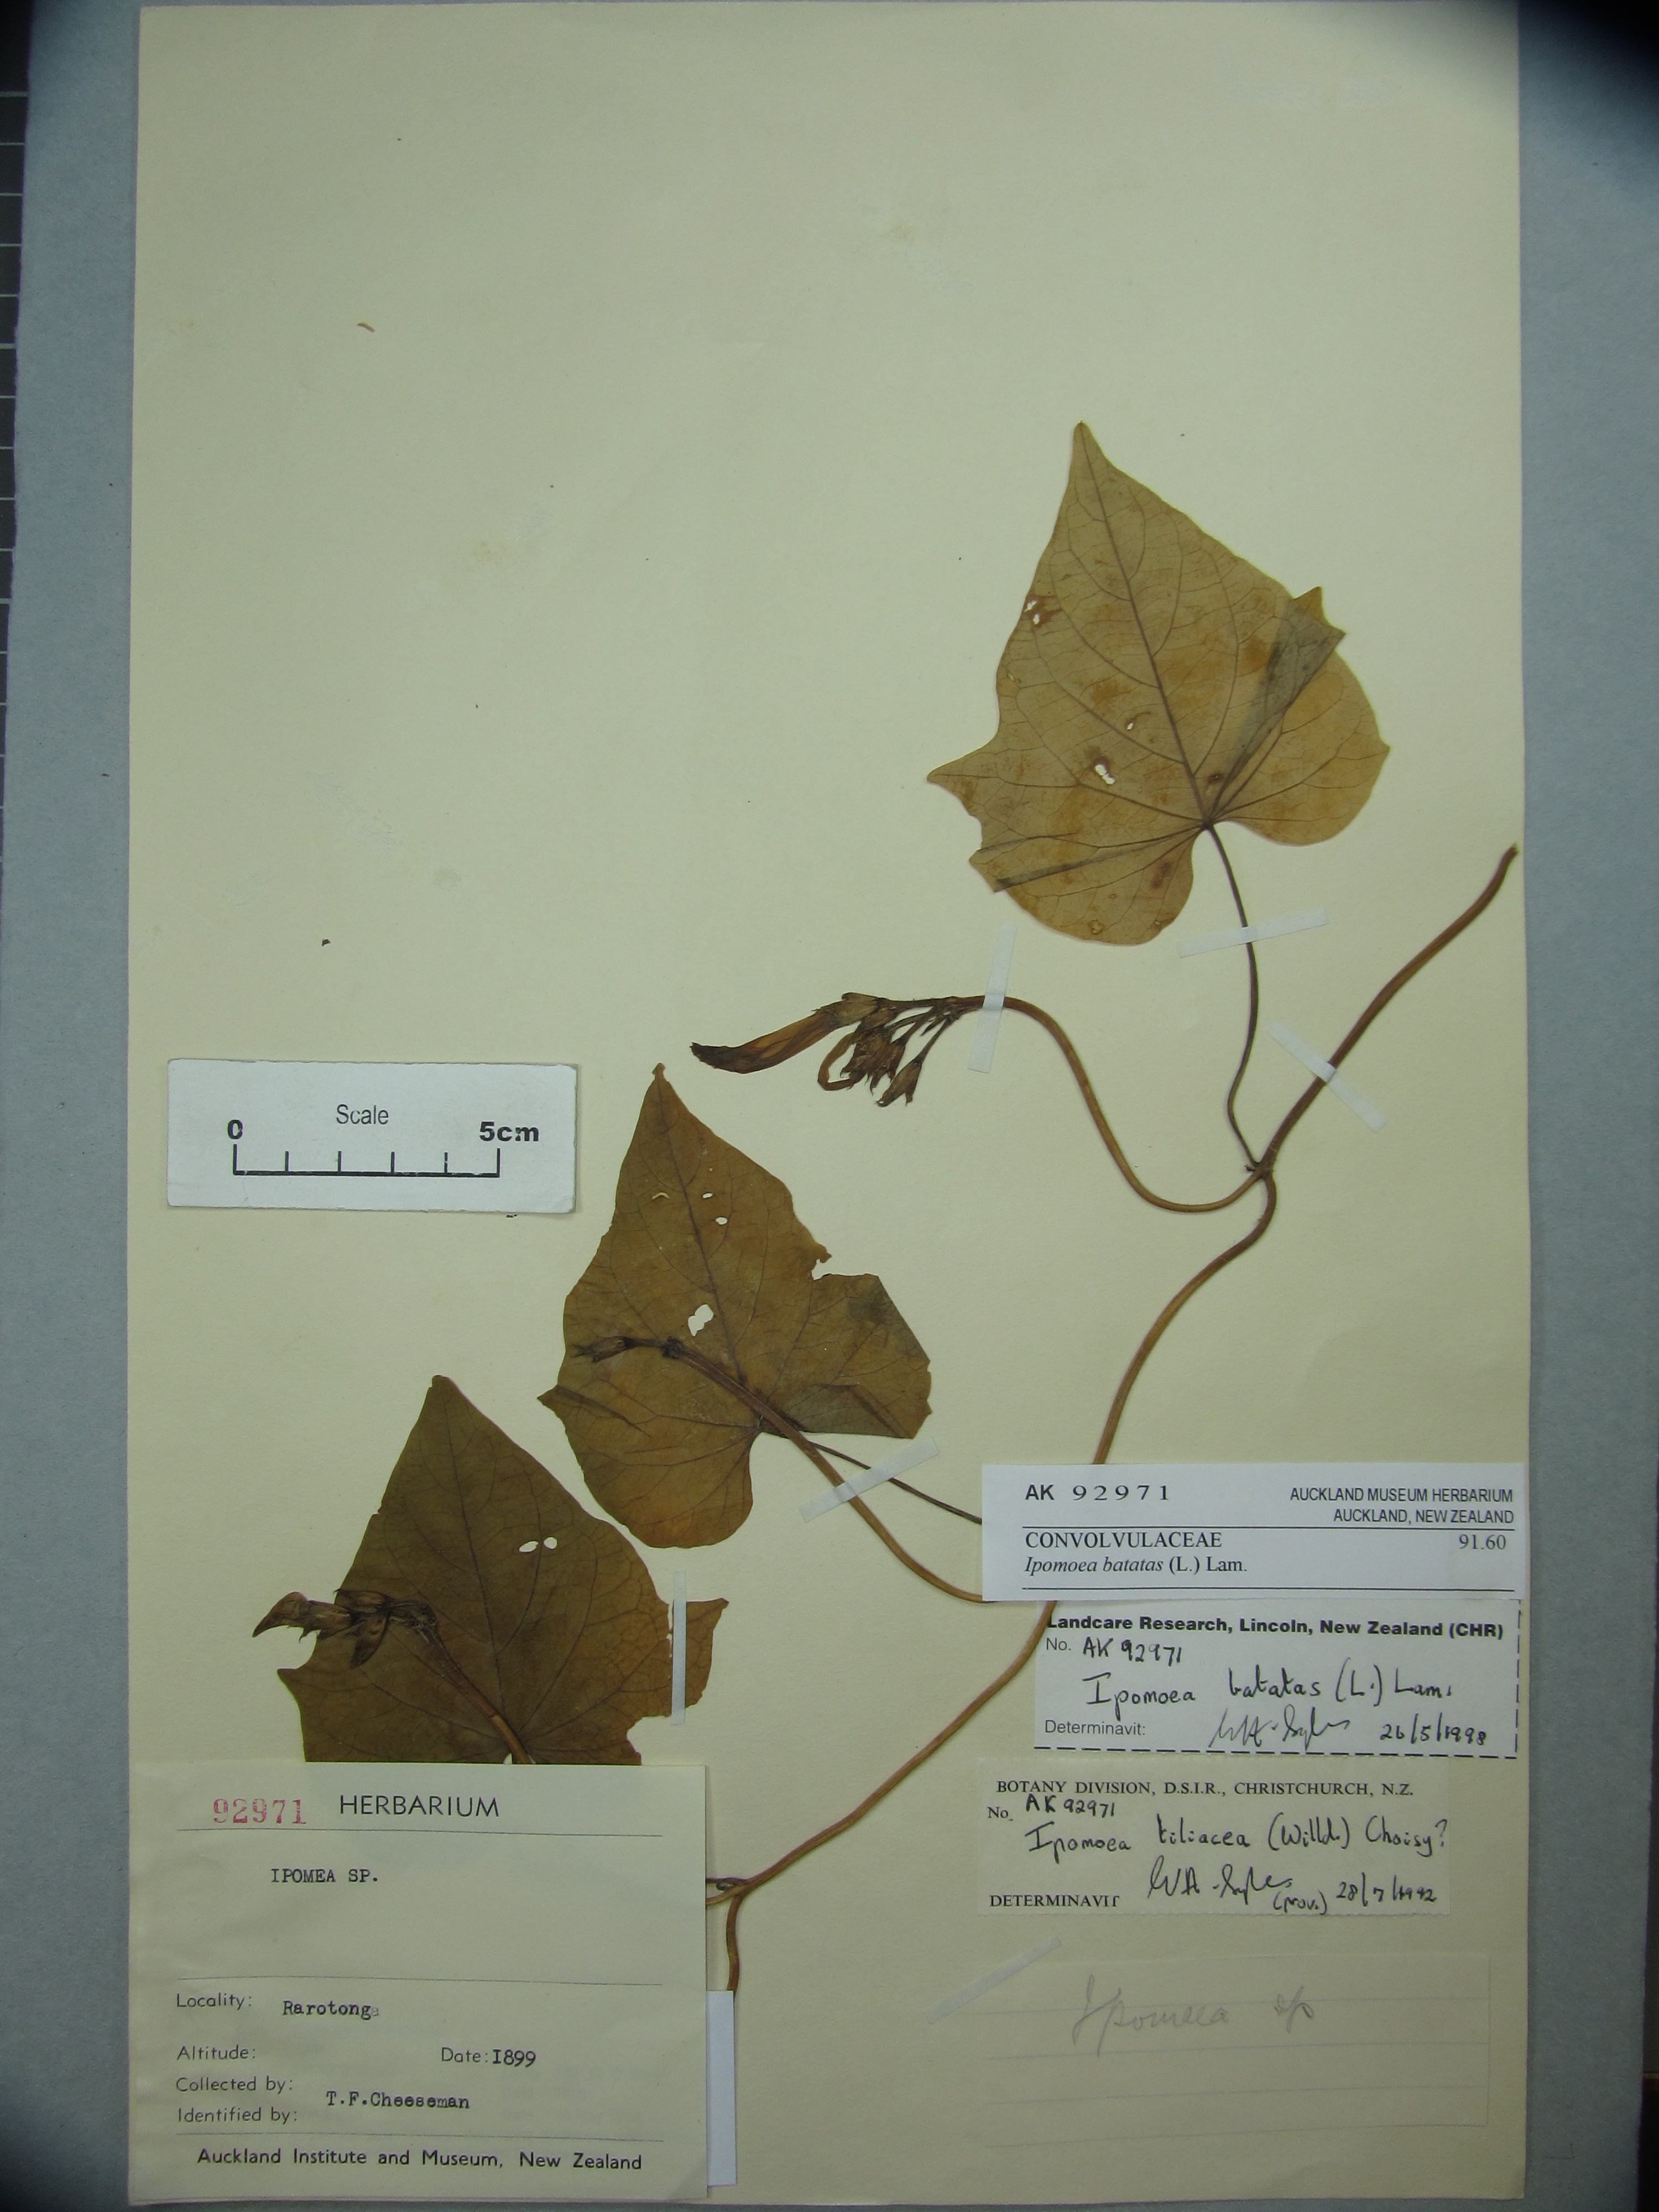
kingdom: Plantae
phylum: Tracheophyta
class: Magnoliopsida
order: Solanales
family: Convolvulaceae
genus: Ipomoea
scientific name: Ipomoea batatas
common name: Sweet-potato
